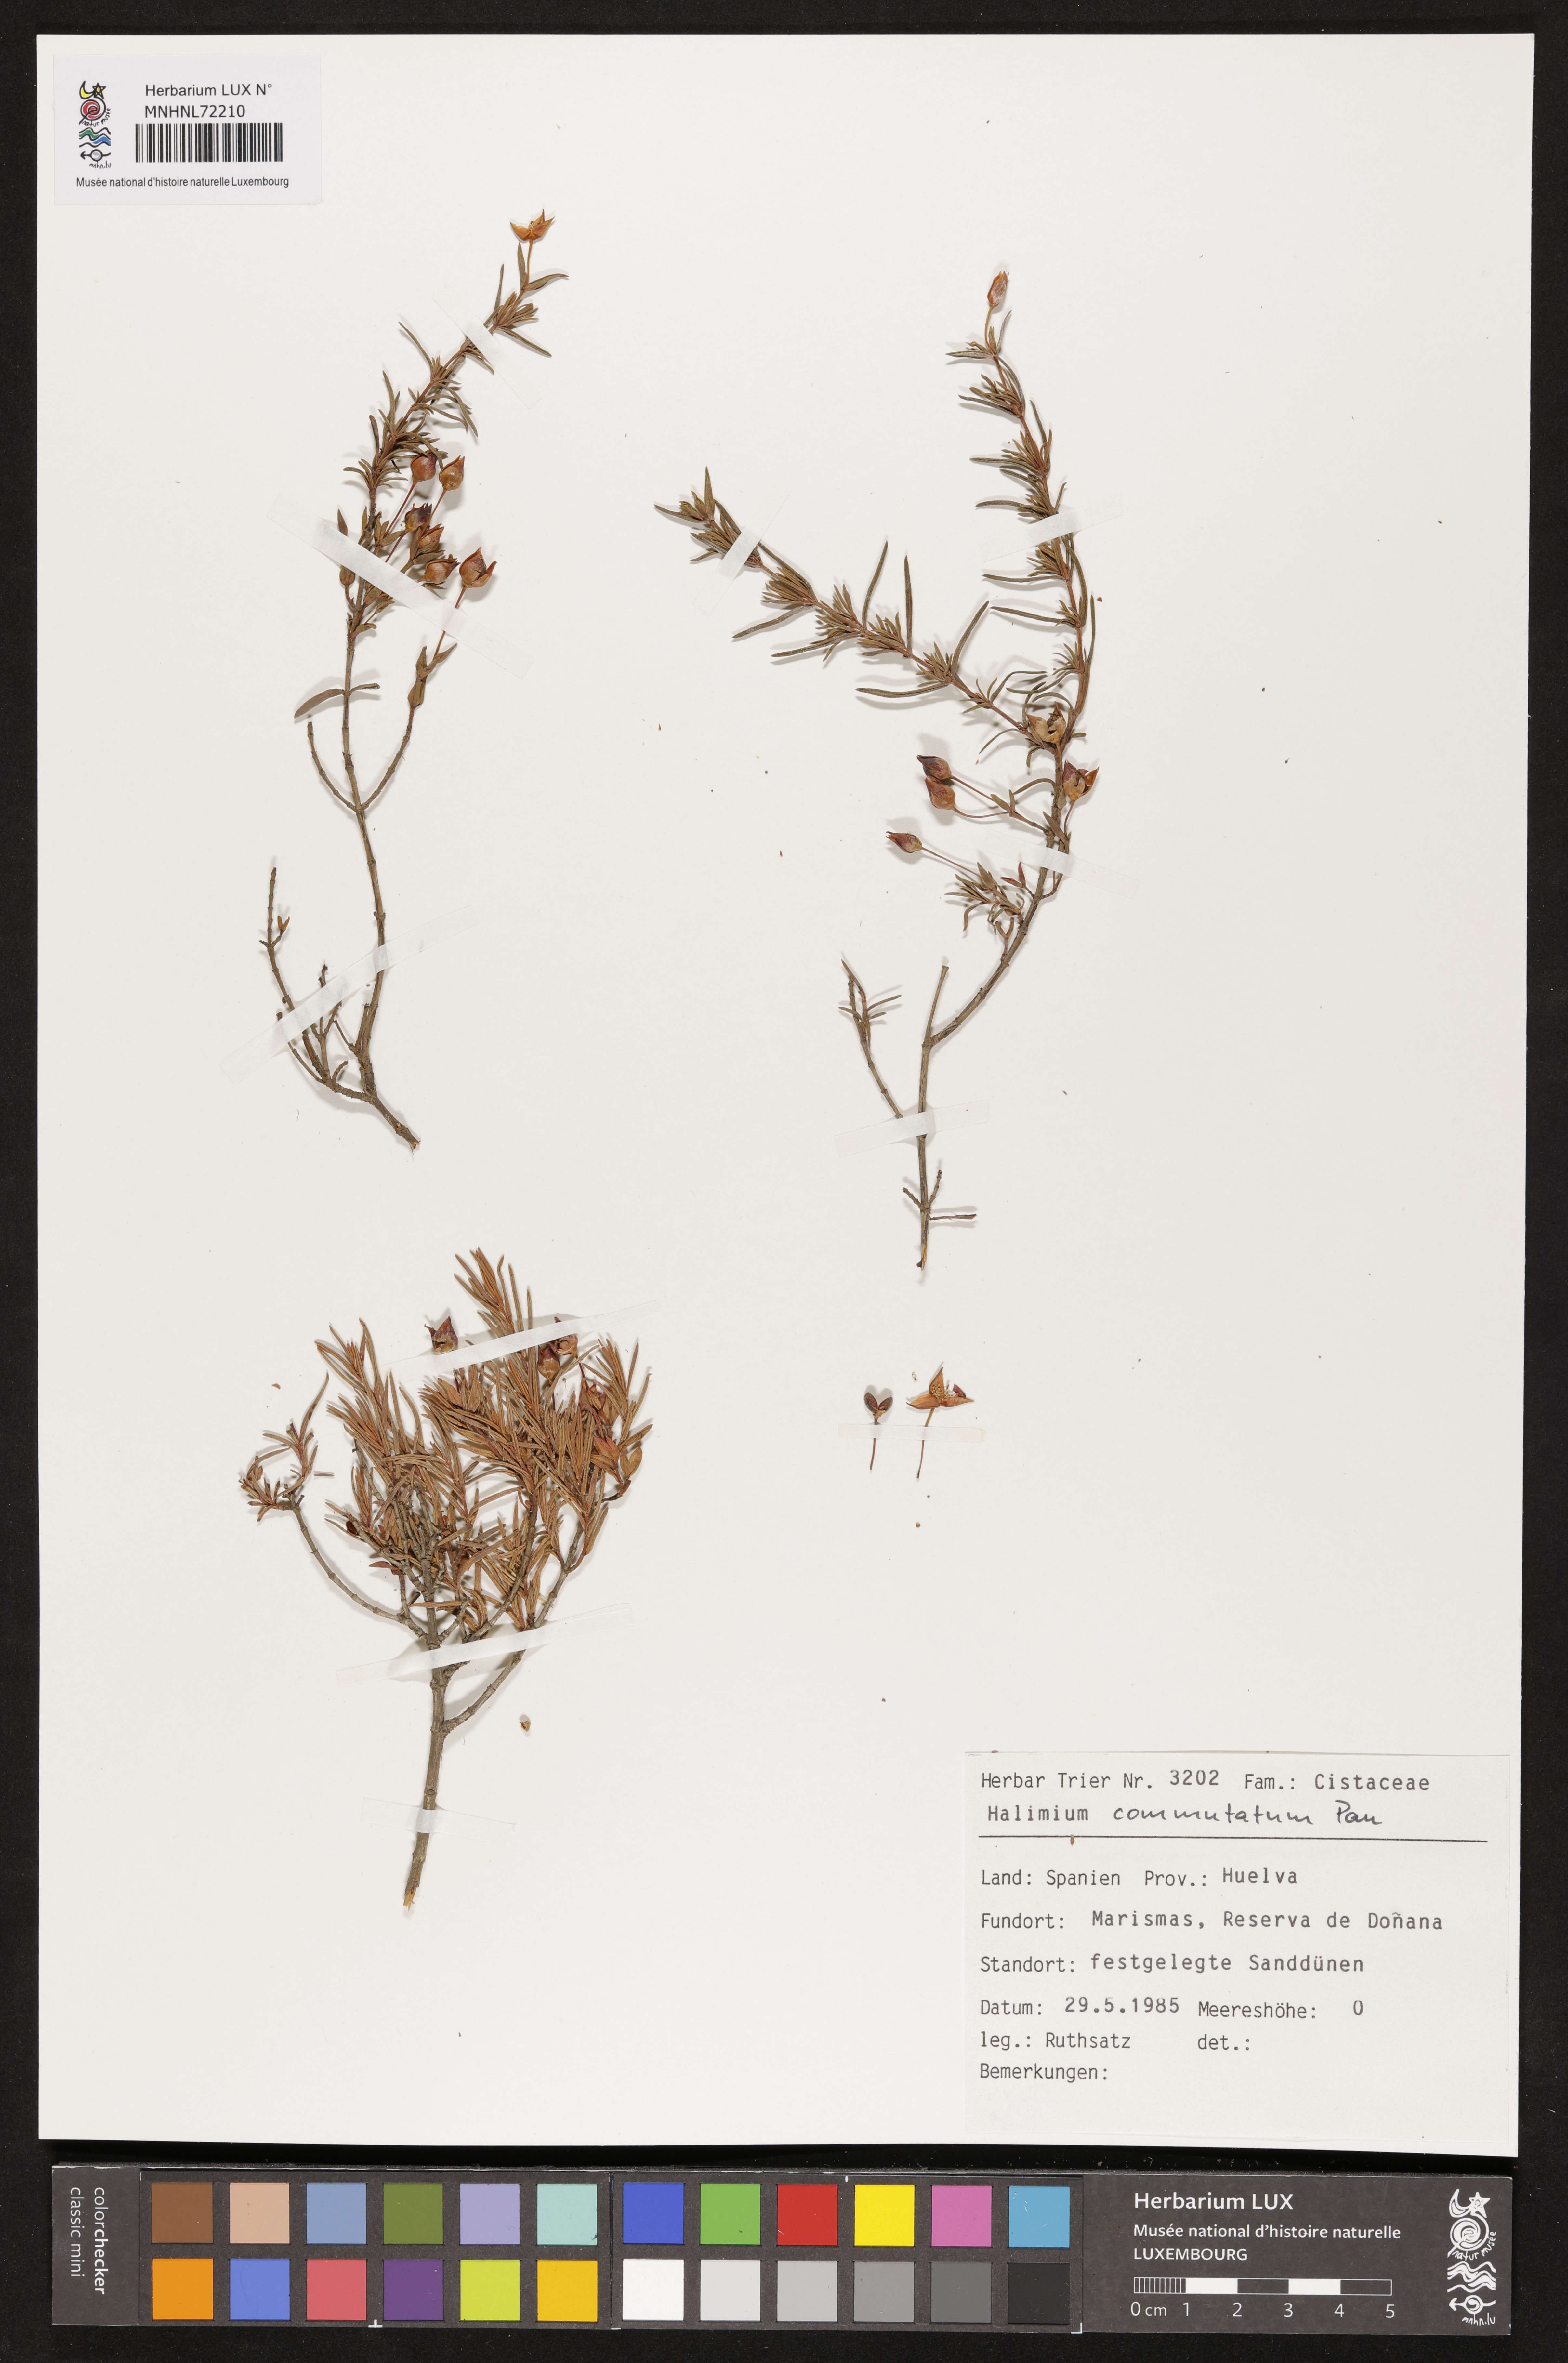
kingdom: Plantae
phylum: Tracheophyta
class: Magnoliopsida
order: Malvales
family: Cistaceae
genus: Halimium
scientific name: Halimium calycinum
